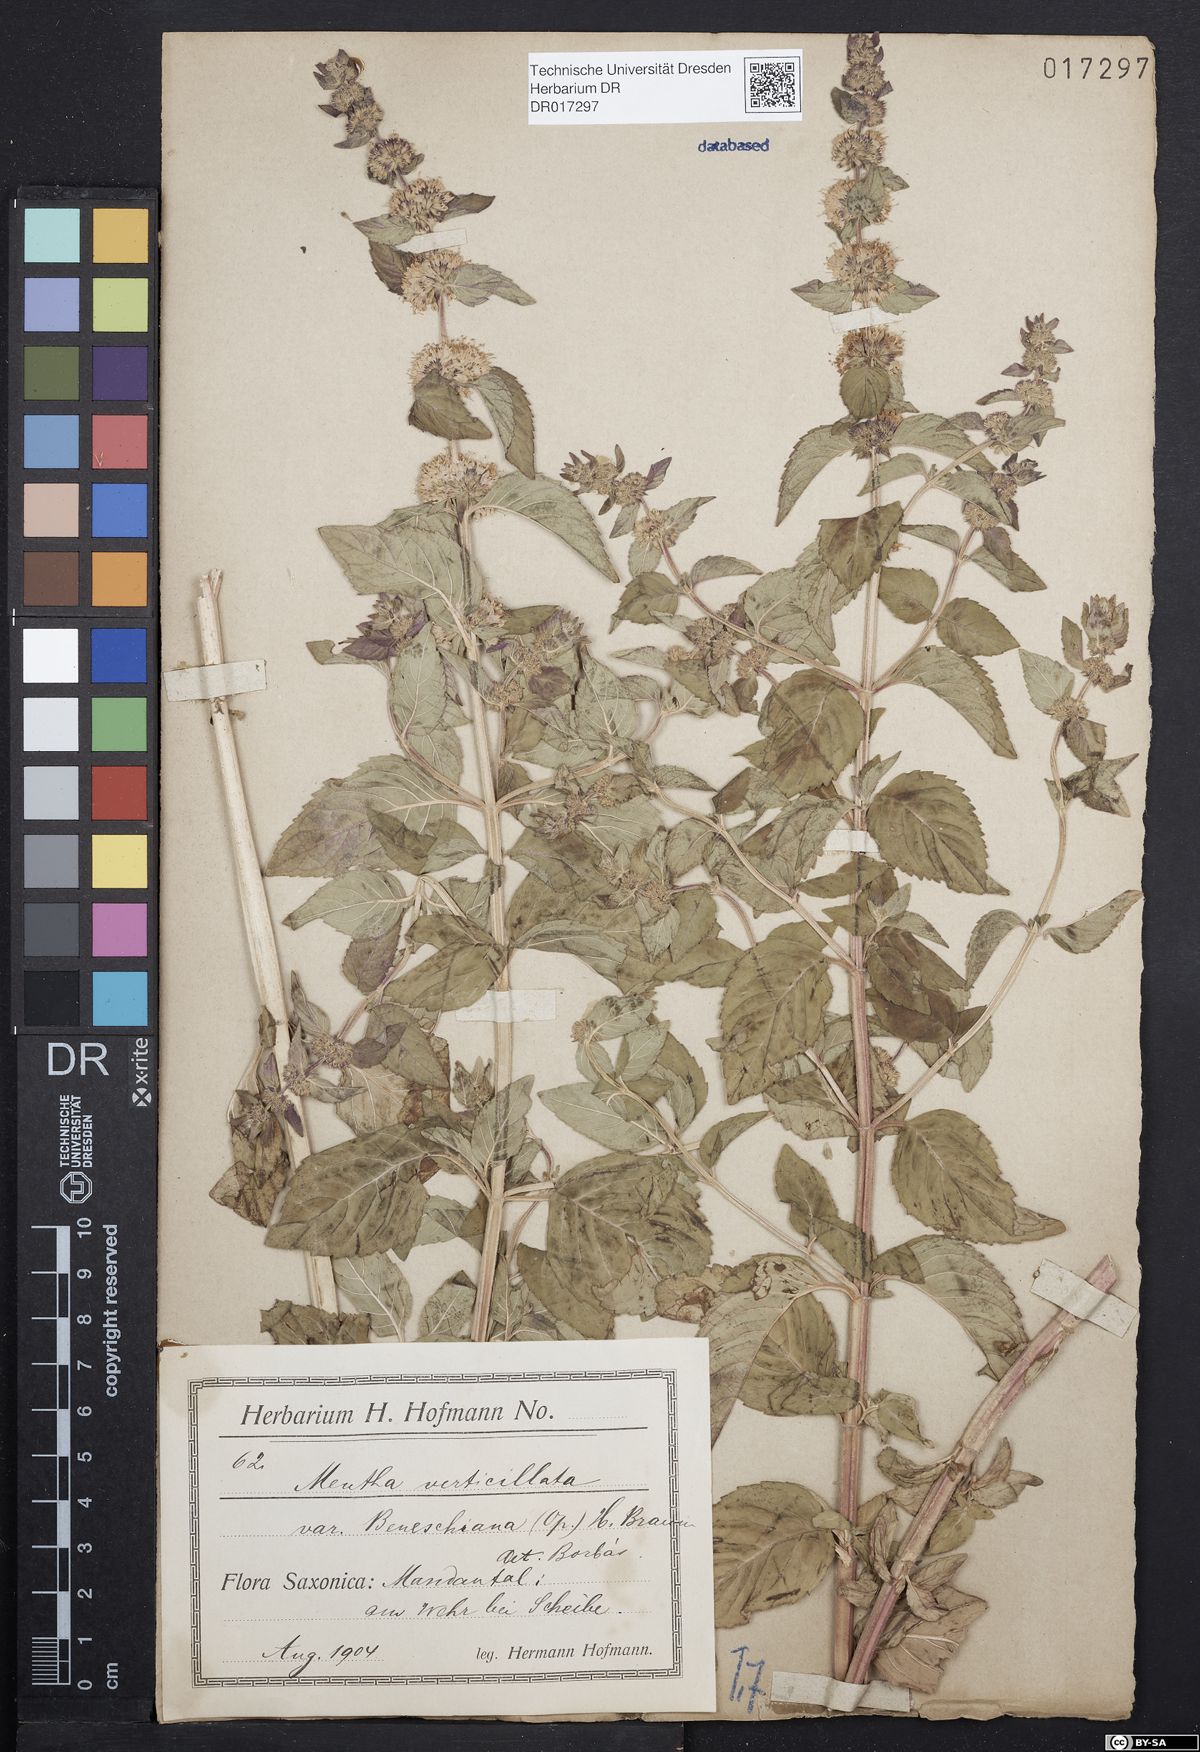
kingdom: Plantae
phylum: Tracheophyta
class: Magnoliopsida
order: Lamiales
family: Lamiaceae
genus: Mentha
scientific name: Mentha verticillata
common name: Mint
